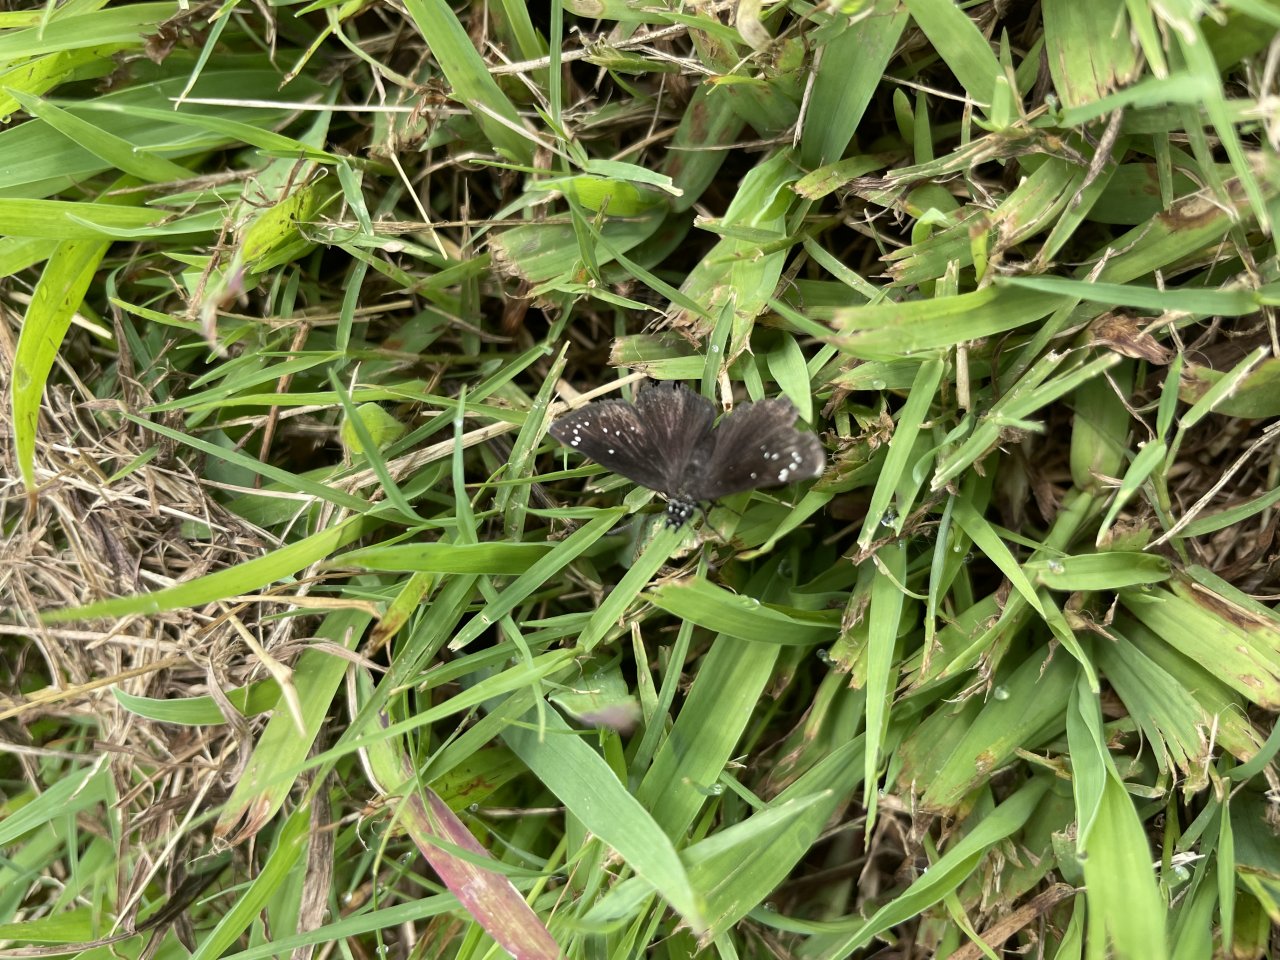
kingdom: Animalia
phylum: Arthropoda
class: Insecta
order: Lepidoptera
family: Hesperiidae
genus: Pholisora
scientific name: Pholisora catullus
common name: Common Sootywing
